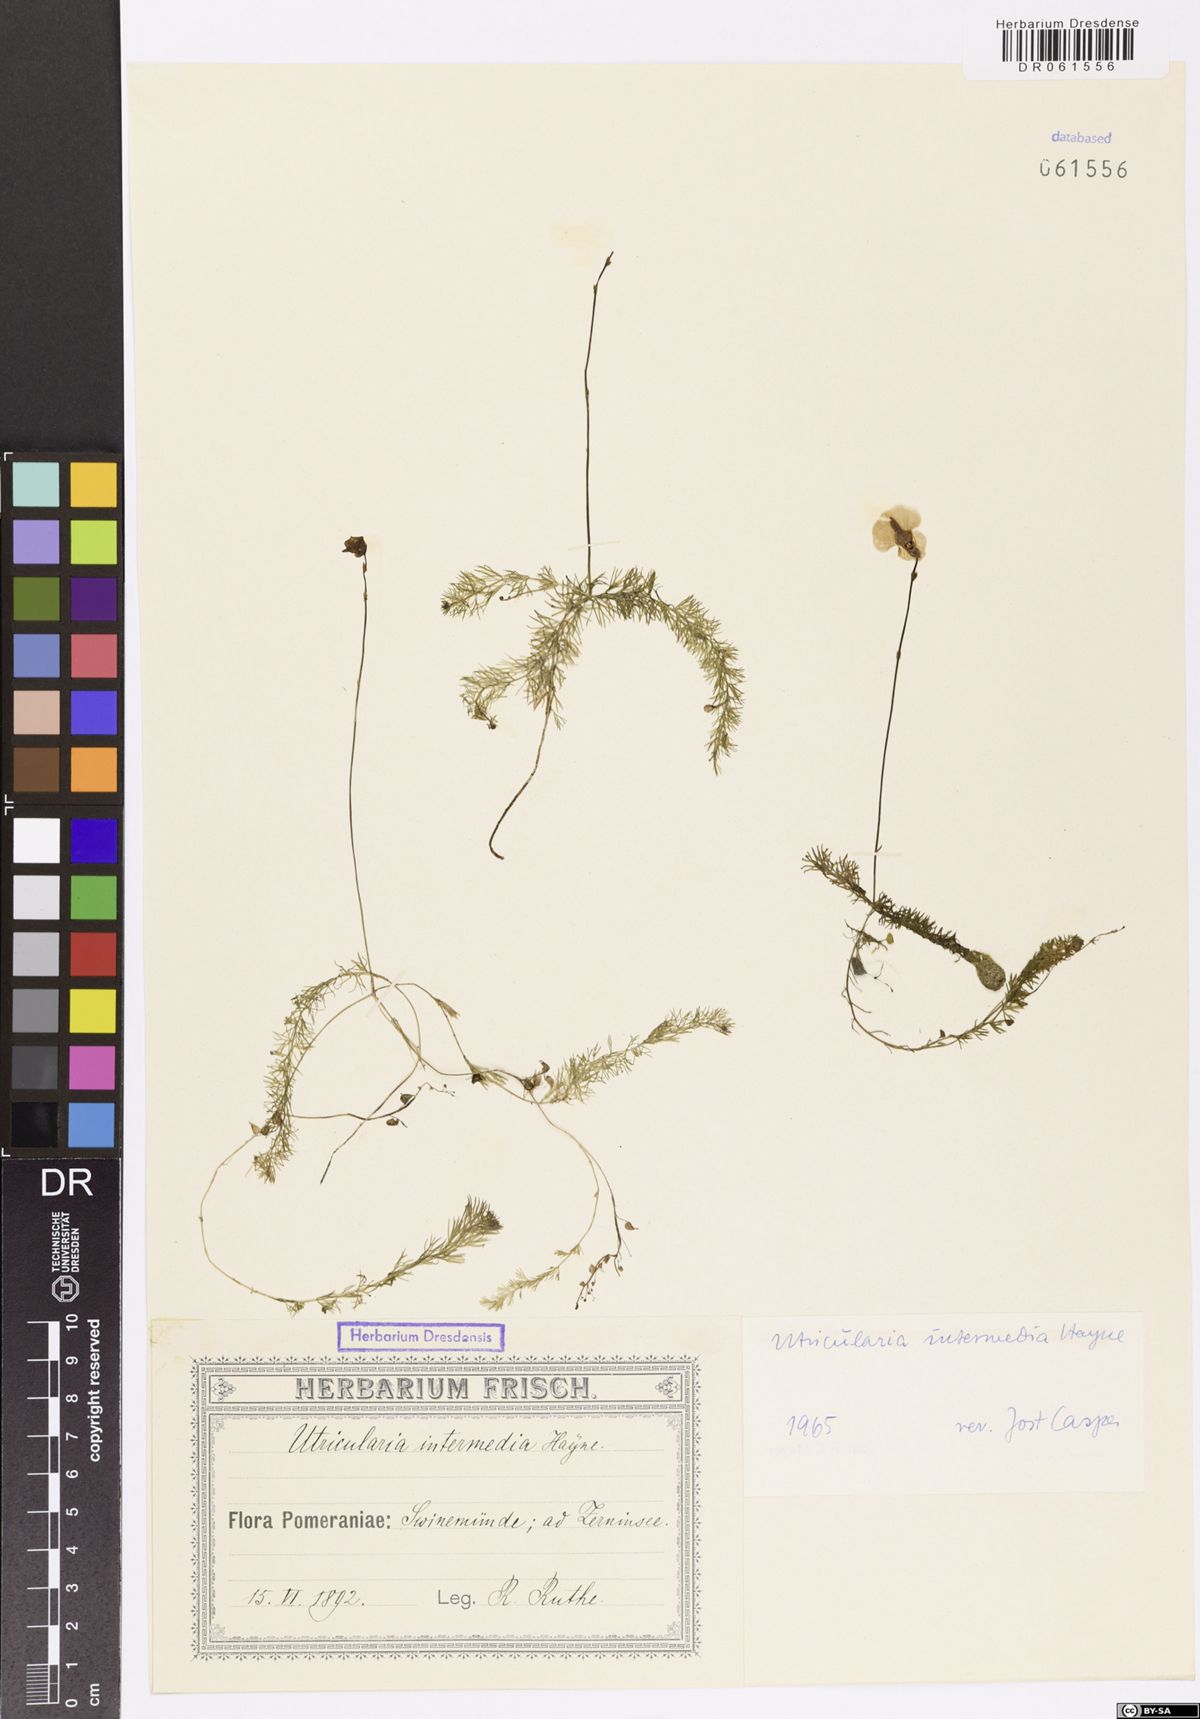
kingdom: Plantae
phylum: Tracheophyta
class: Magnoliopsida
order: Lamiales
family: Lentibulariaceae
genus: Utricularia
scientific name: Utricularia intermedia
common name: Intermediate bladderwort
